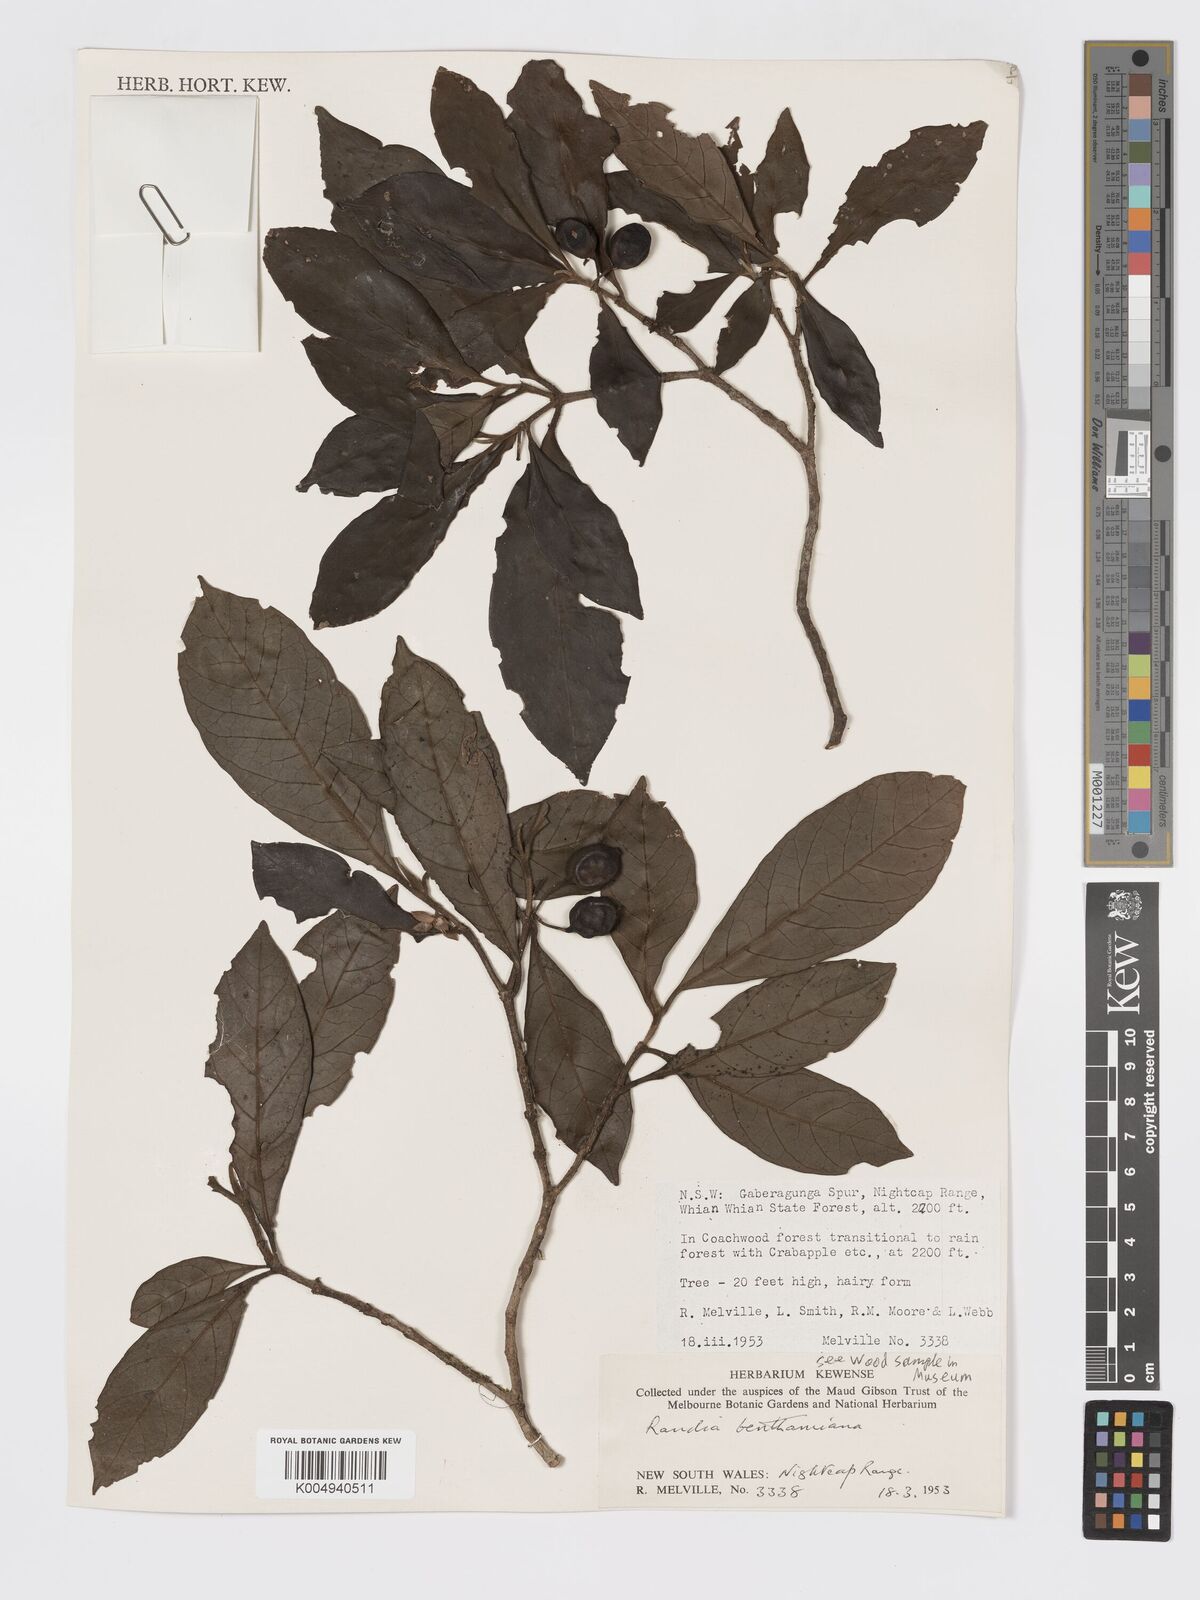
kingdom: Plantae
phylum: Tracheophyta
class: Magnoliopsida
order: Gentianales
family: Rubiaceae
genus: Atractocarpus
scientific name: Atractocarpus benthamianus
